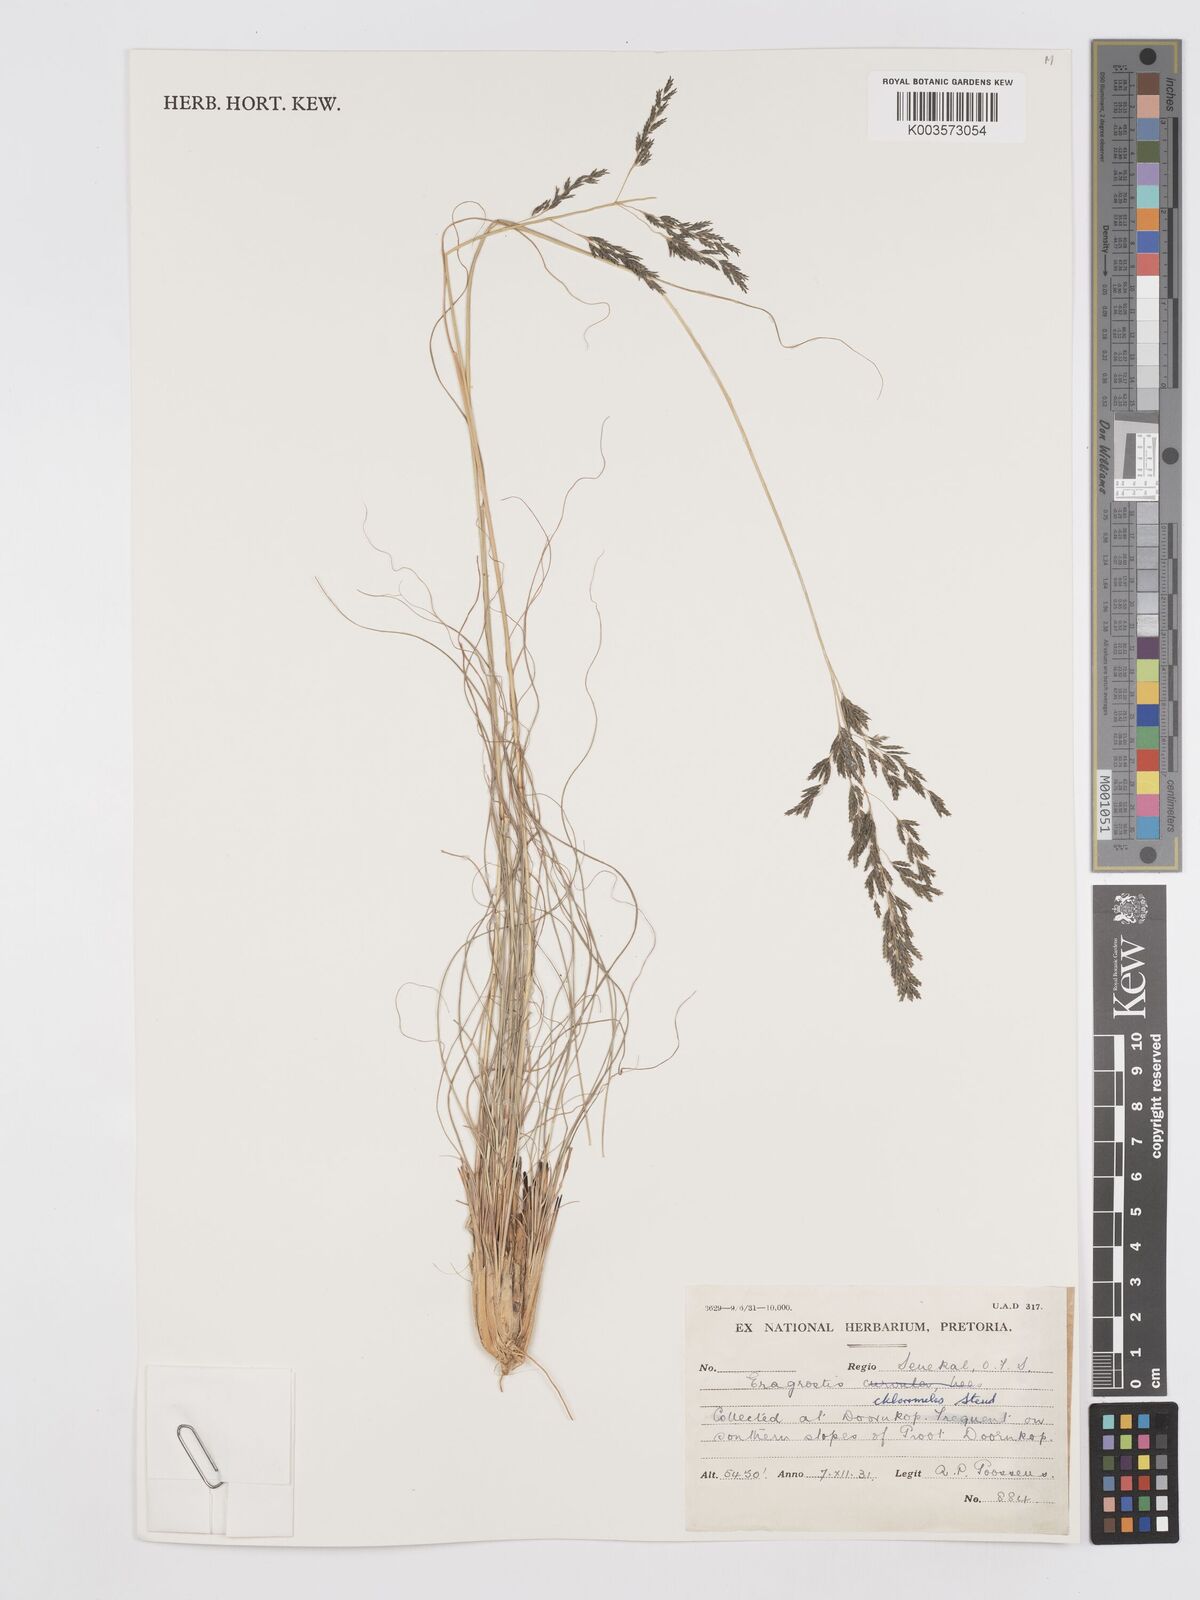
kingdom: Plantae
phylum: Tracheophyta
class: Liliopsida
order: Poales
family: Poaceae
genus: Eragrostis
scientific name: Eragrostis curvula
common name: African love-grass
